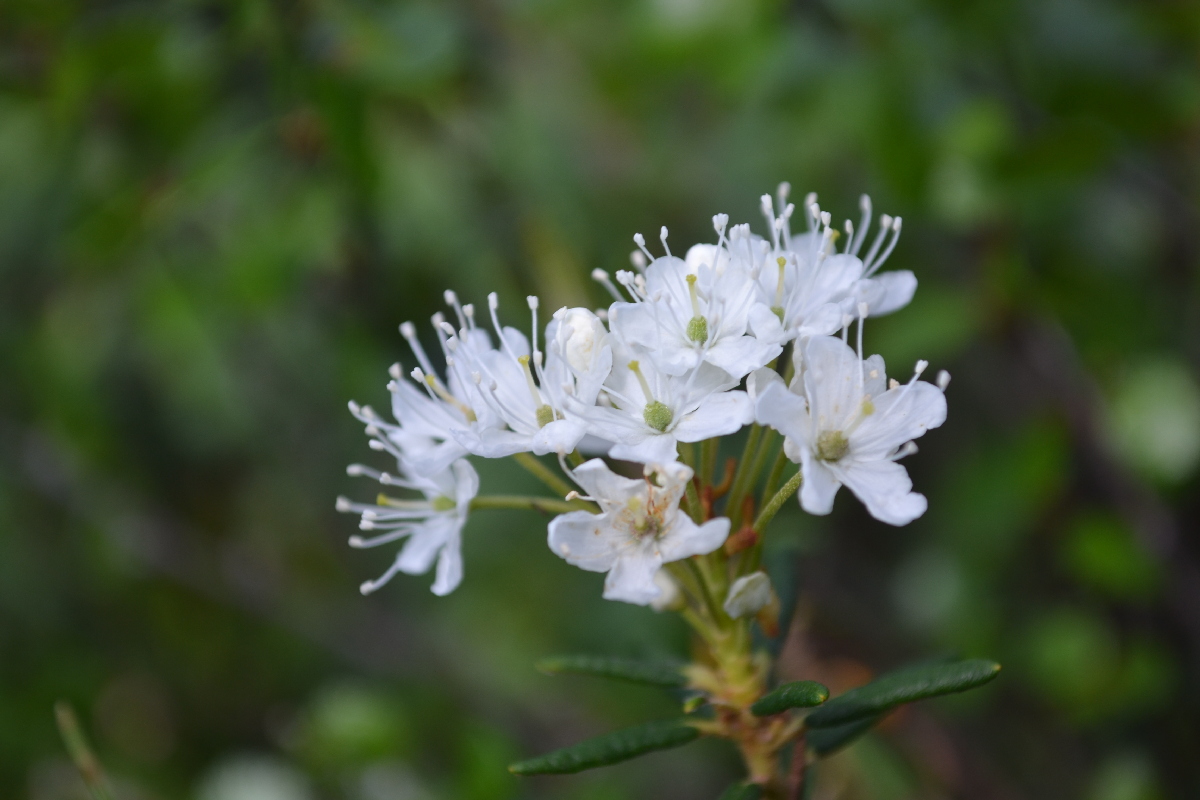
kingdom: Plantae
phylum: Tracheophyta
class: Magnoliopsida
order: Ericales
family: Ericaceae
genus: Rhododendron
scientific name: Rhododendron tomentosum
